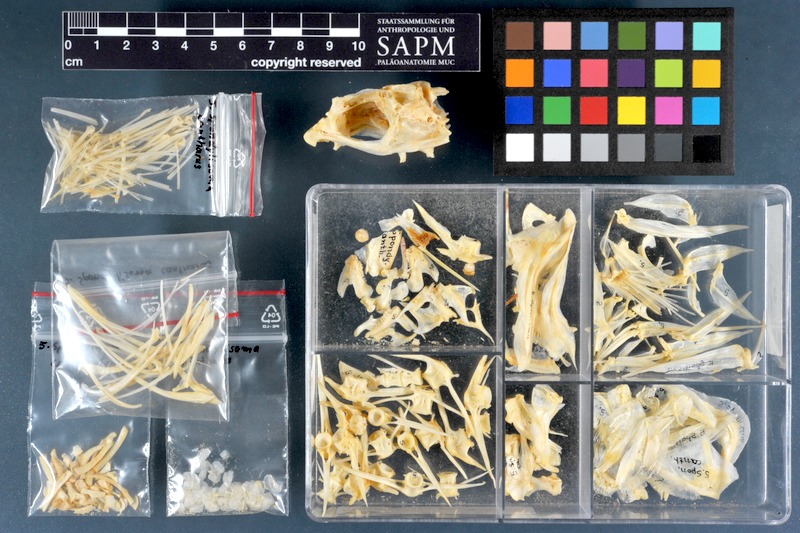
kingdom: Animalia
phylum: Chordata
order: Perciformes
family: Sparidae
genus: Spondyliosoma
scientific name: Spondyliosoma cantharus
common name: Black seabream
